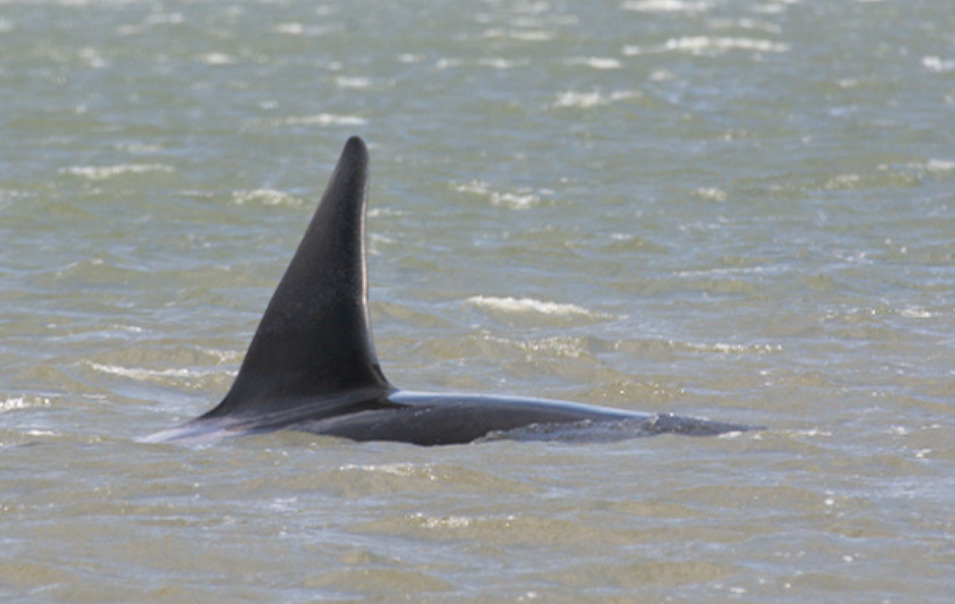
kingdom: Animalia
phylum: Chordata
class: Mammalia
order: Cetacea
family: Delphinidae
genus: Orcinus
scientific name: Orcinus orca
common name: Spækhugger
